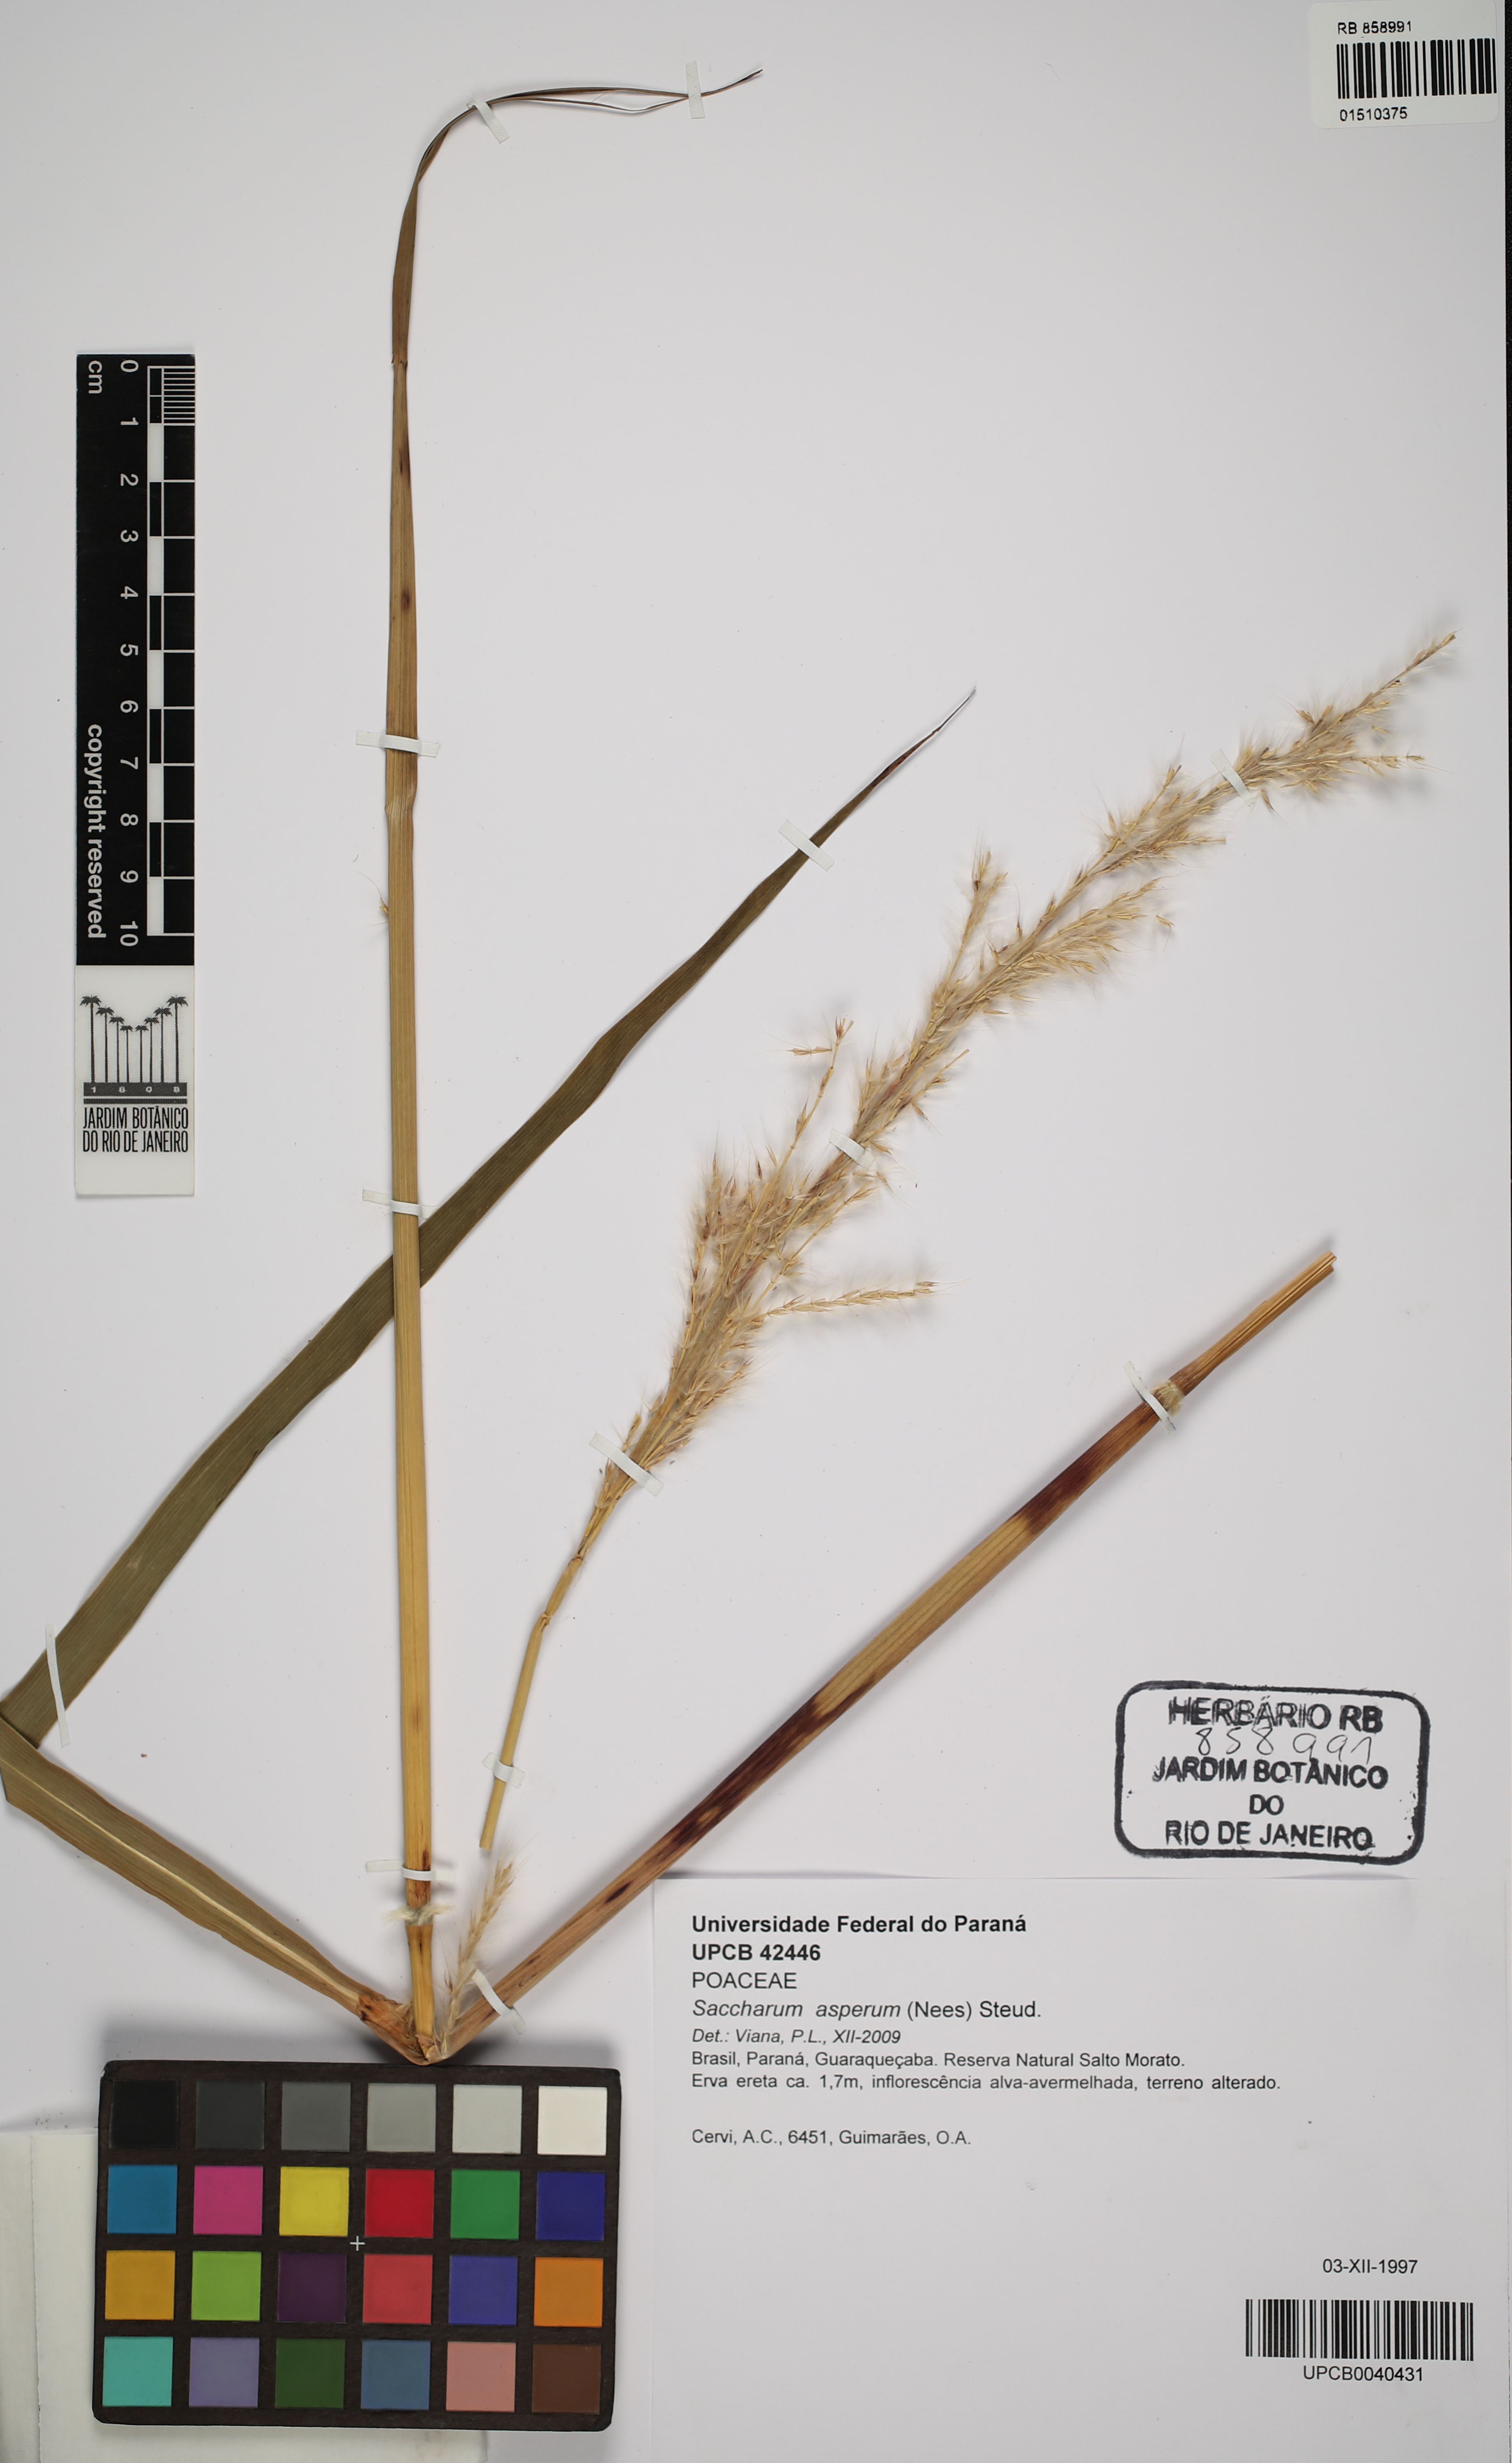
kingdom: Plantae
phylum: Tracheophyta
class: Liliopsida
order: Poales
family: Poaceae
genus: Erianthus
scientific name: Erianthus asper
